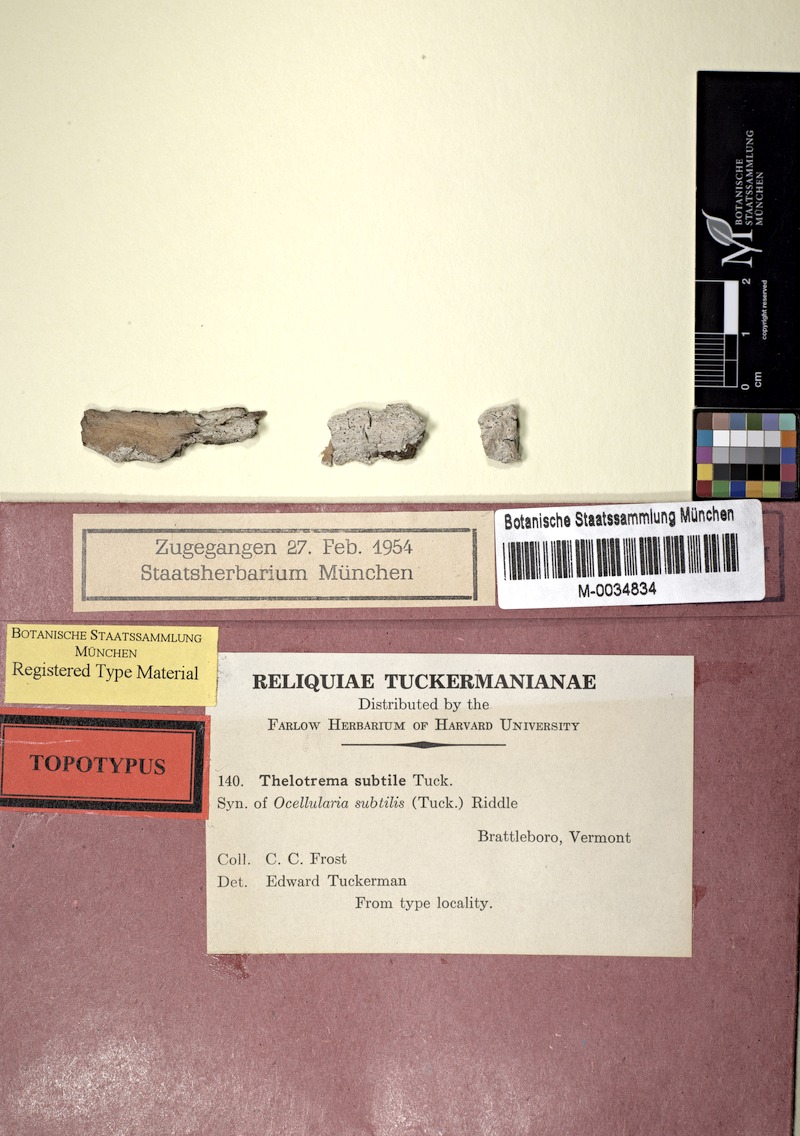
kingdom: Fungi
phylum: Ascomycota
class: Lecanoromycetes
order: Ostropales
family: Graphidaceae
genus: Thelotrema
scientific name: Thelotrema subtile
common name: Delicate barnacles lichen
